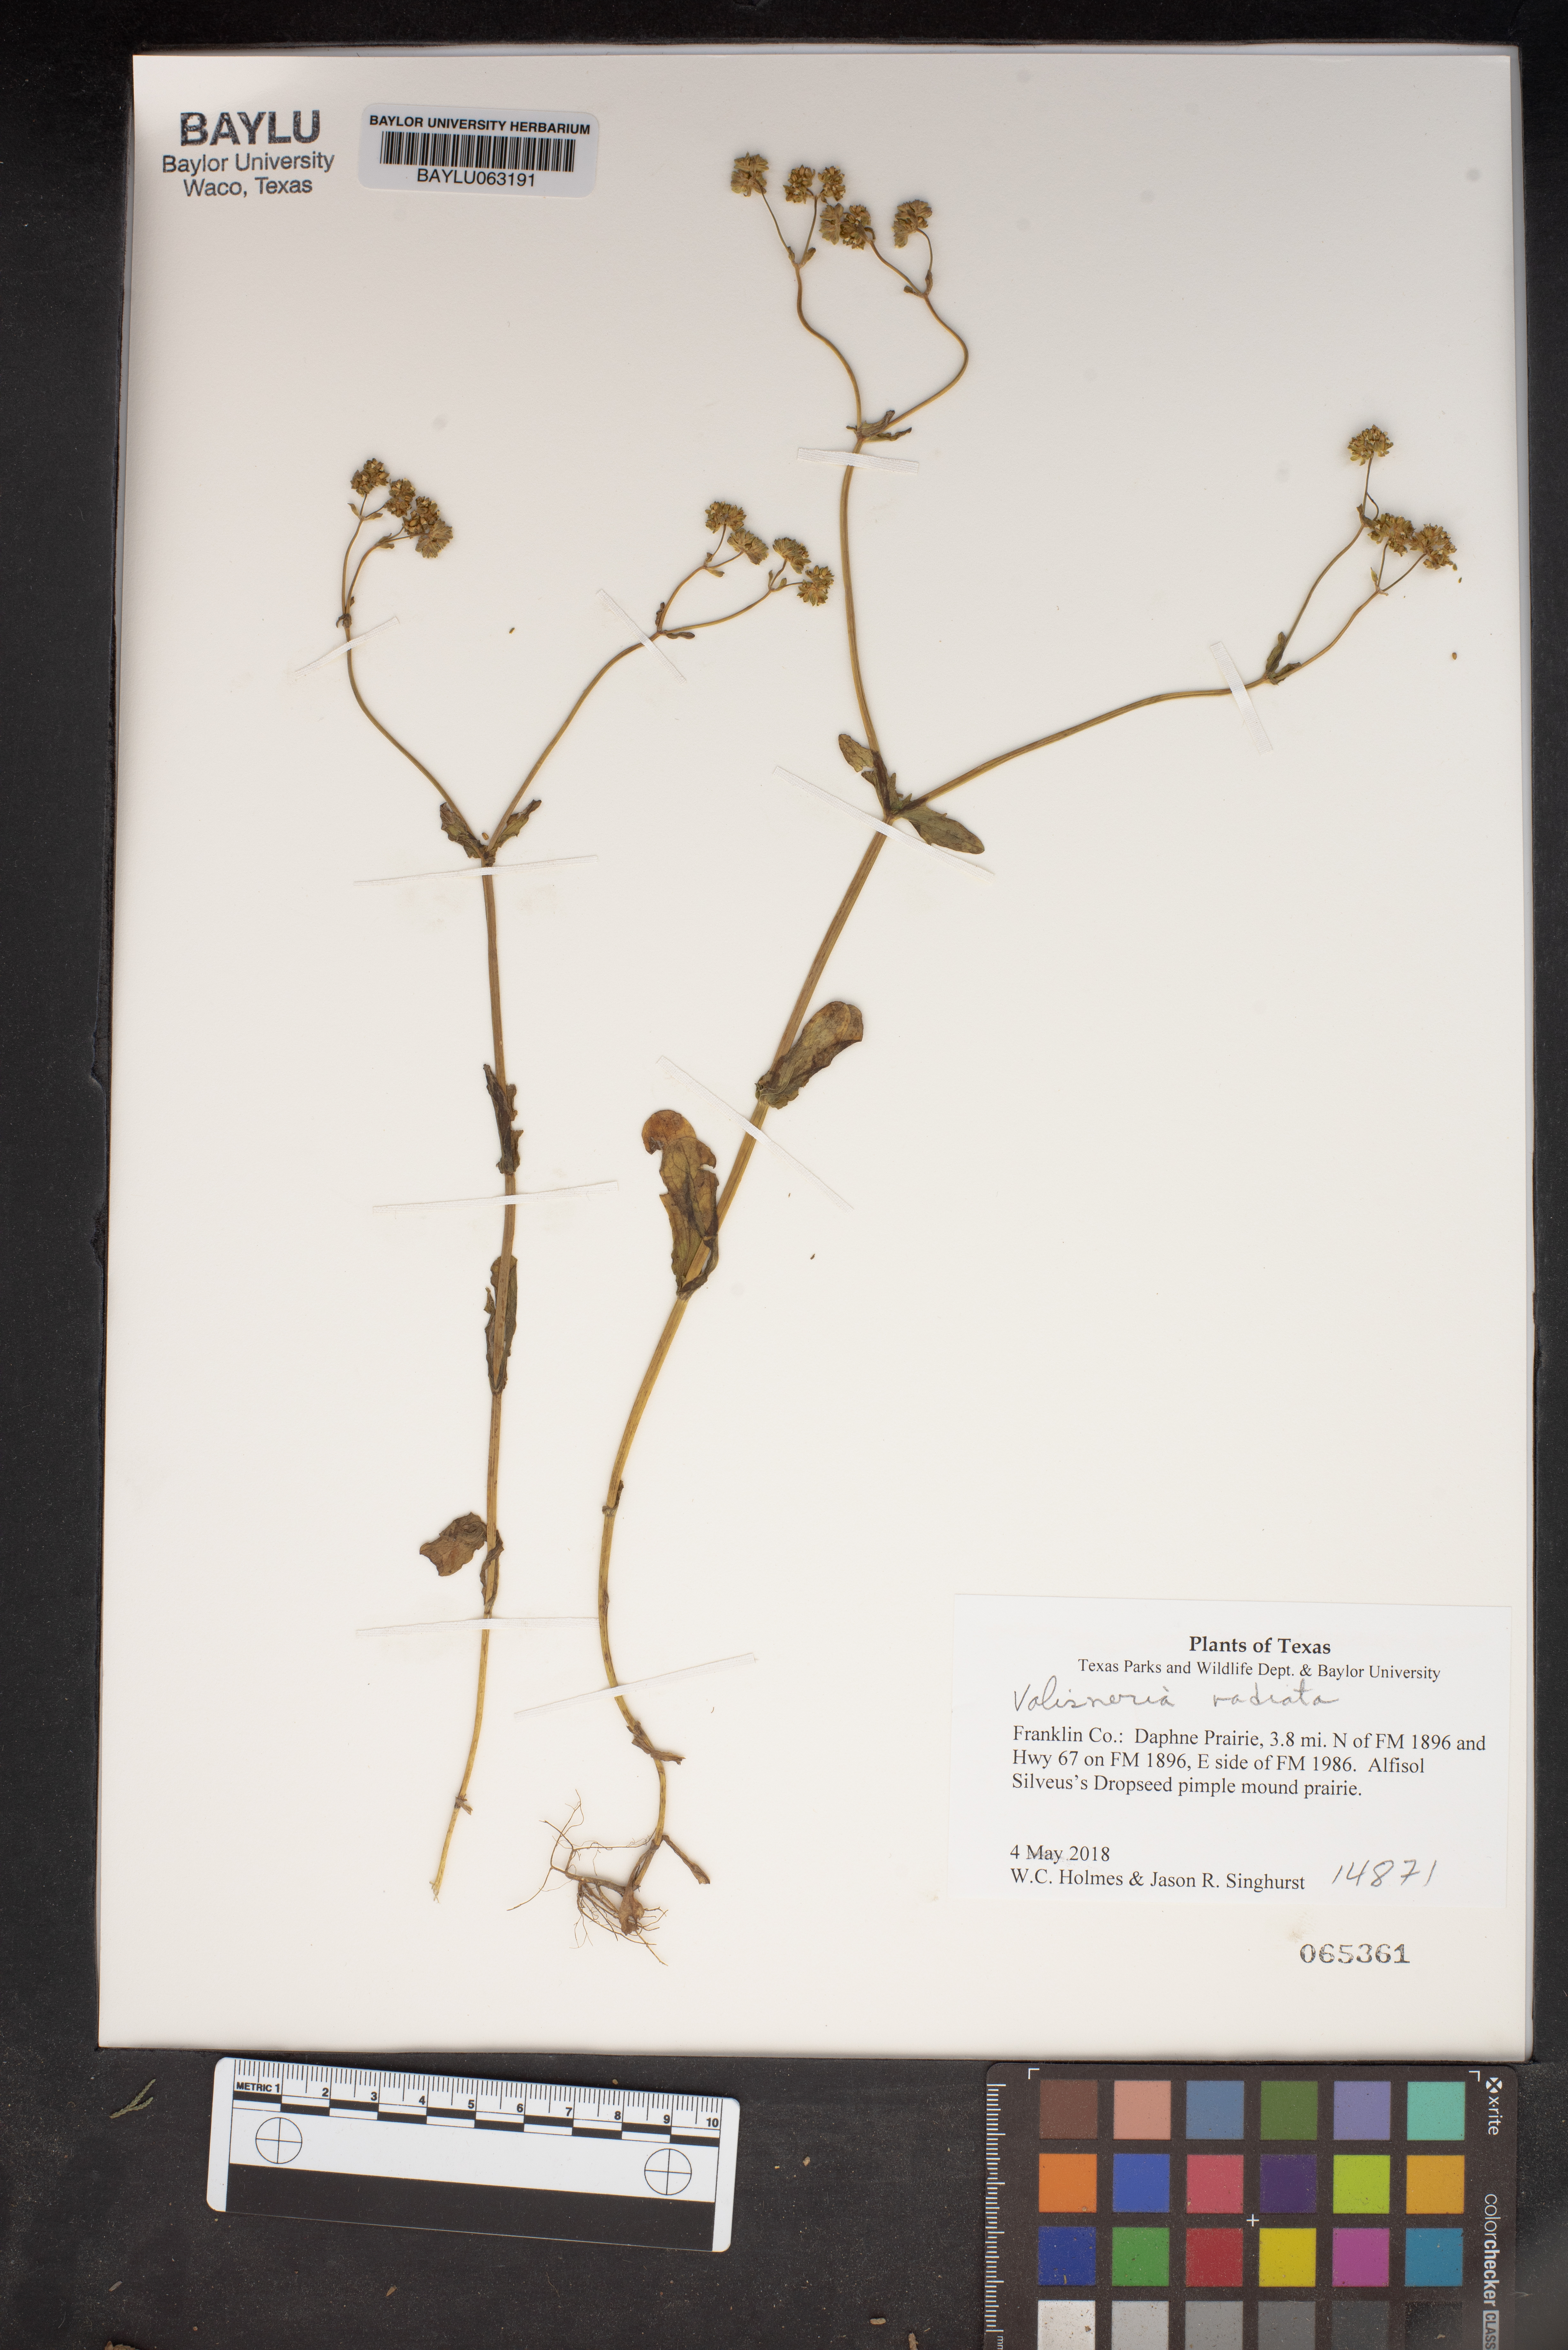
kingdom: Plantae
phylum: Tracheophyta
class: Liliopsida
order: Alismatales
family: Hydrocharitaceae
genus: Valisneria
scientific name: Valisneria
